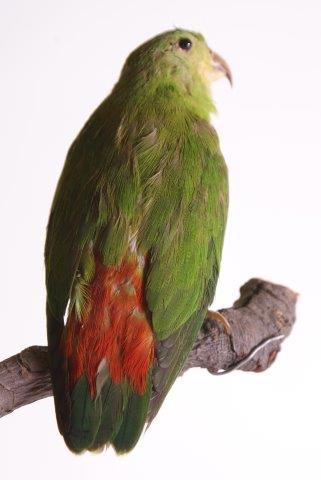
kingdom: Animalia
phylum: Chordata
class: Aves
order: Psittaciformes
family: Psittacidae
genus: Loriculus
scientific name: Loriculus galgulus
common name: Blue-crowned hanging parrot
